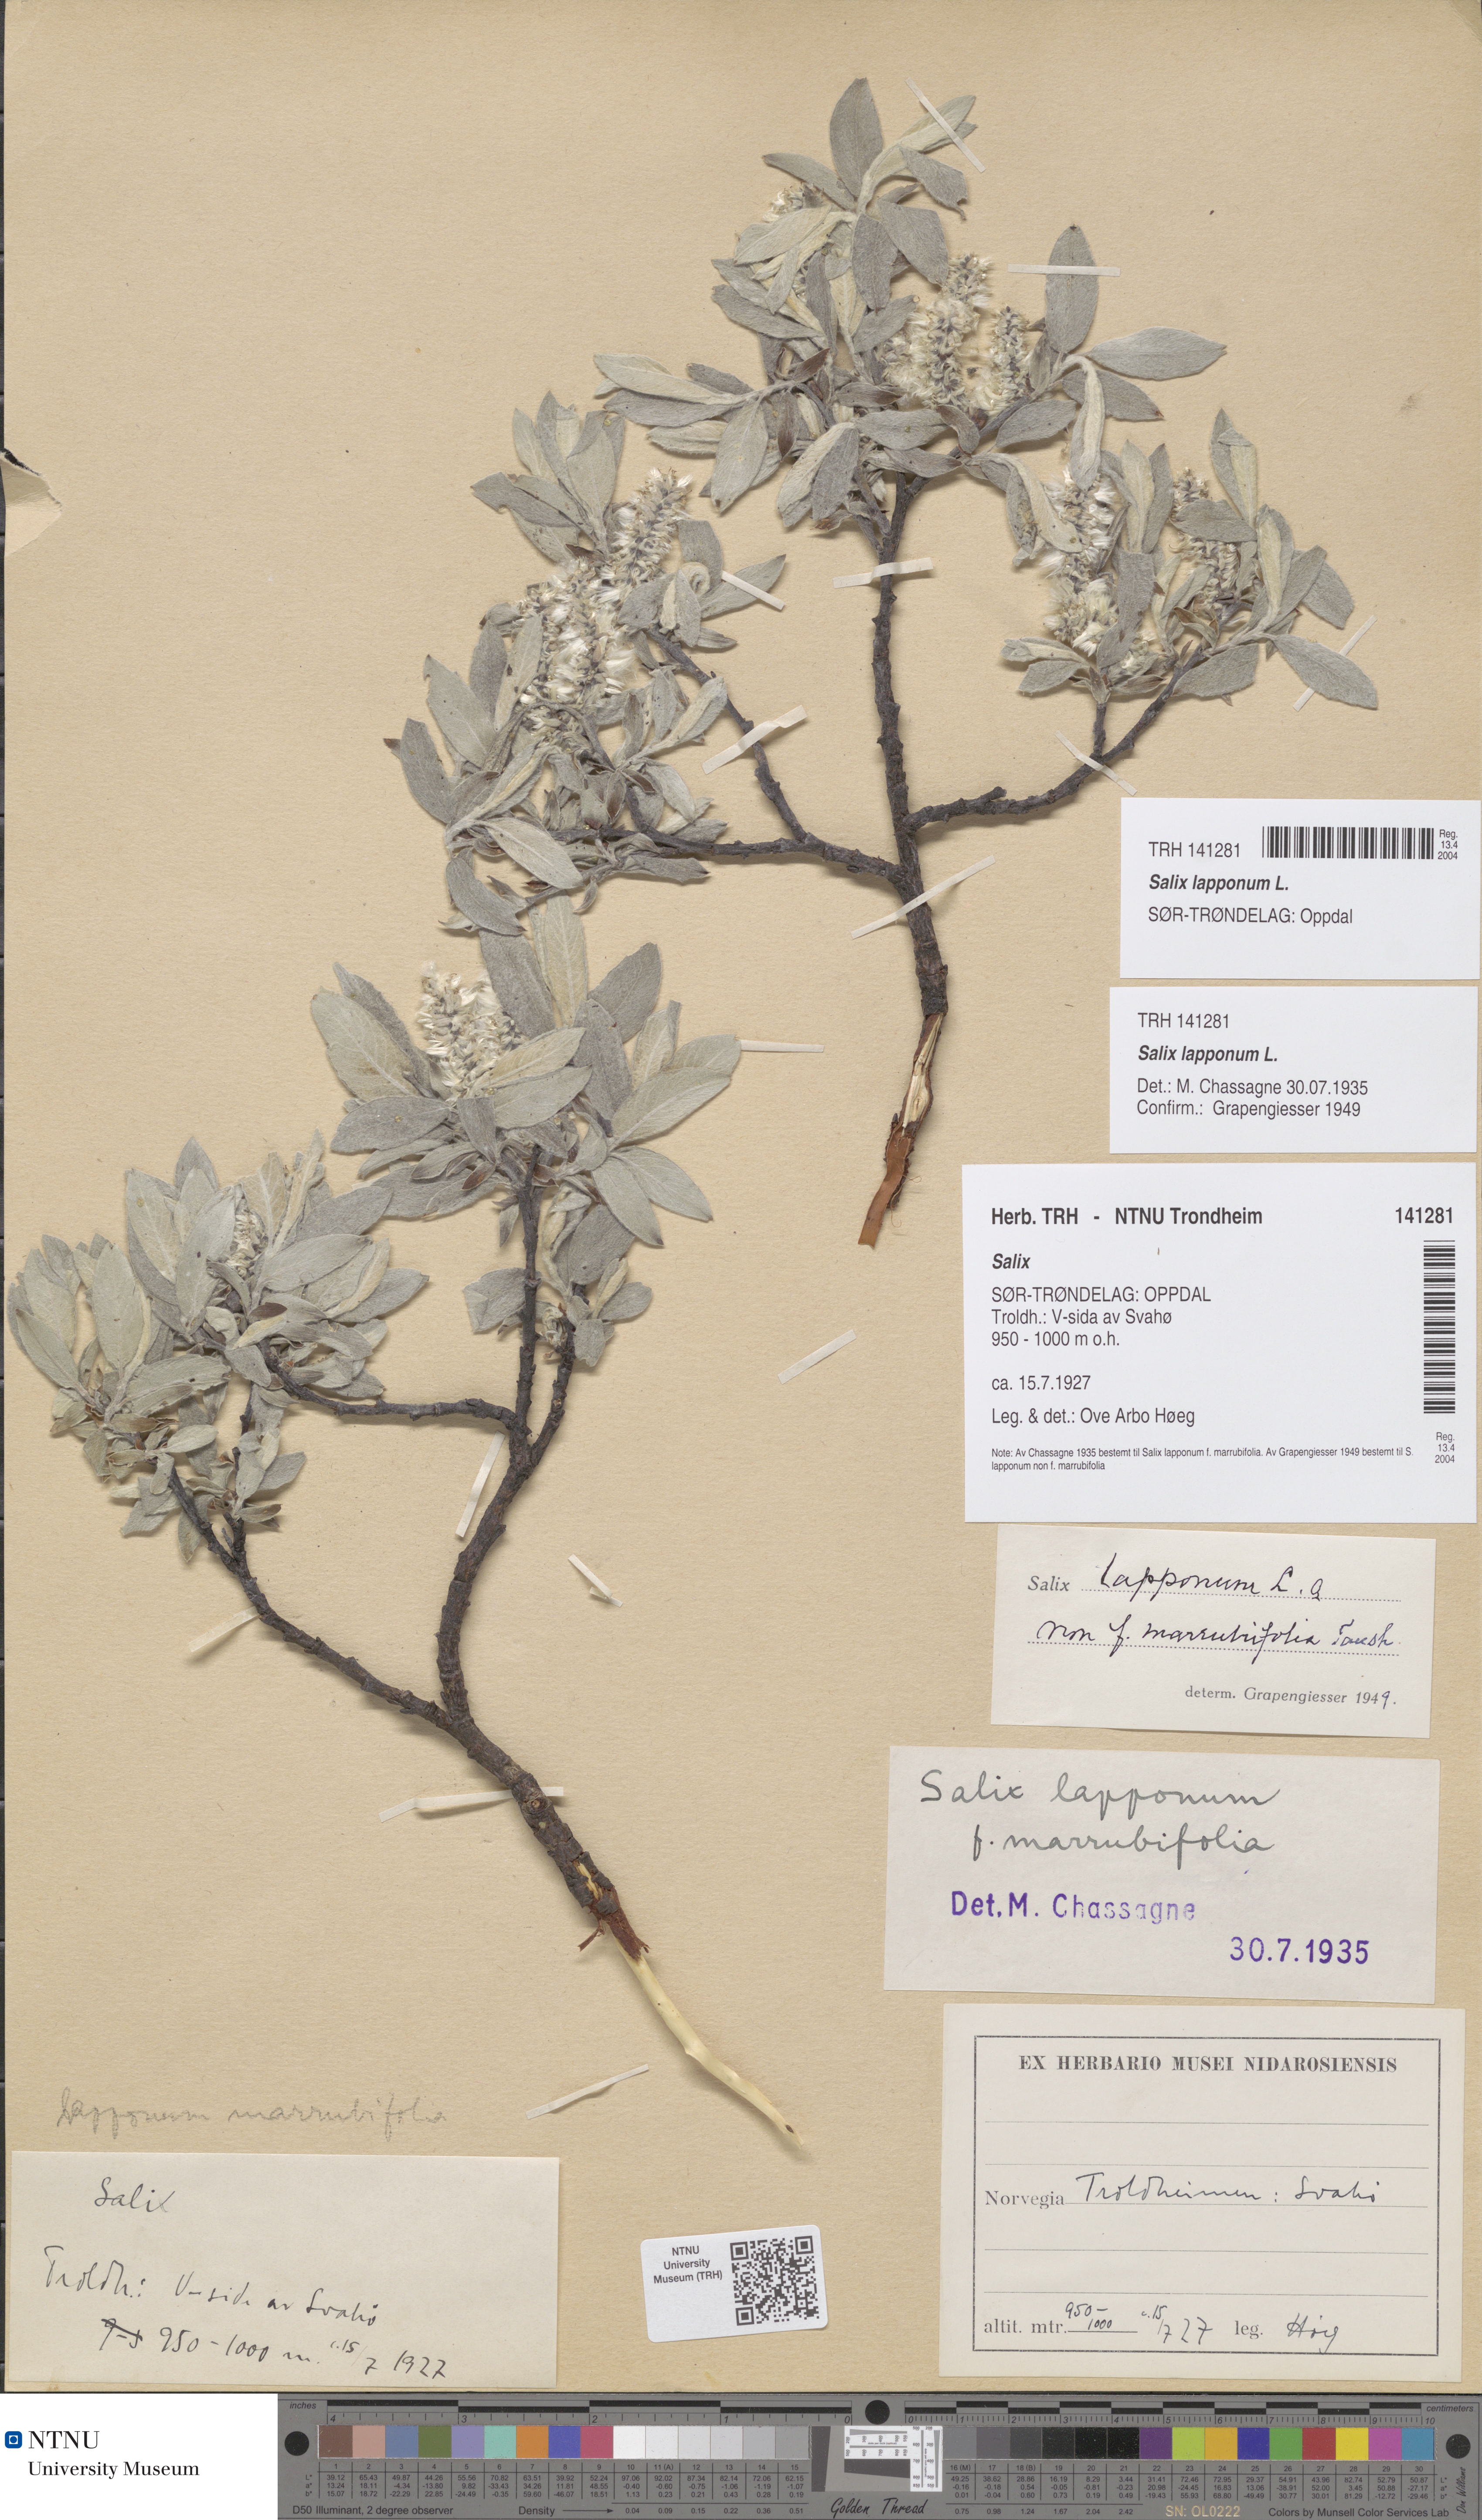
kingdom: Plantae
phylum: Tracheophyta
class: Magnoliopsida
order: Malpighiales
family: Salicaceae
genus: Salix
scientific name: Salix lapponum
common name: Downy willow
